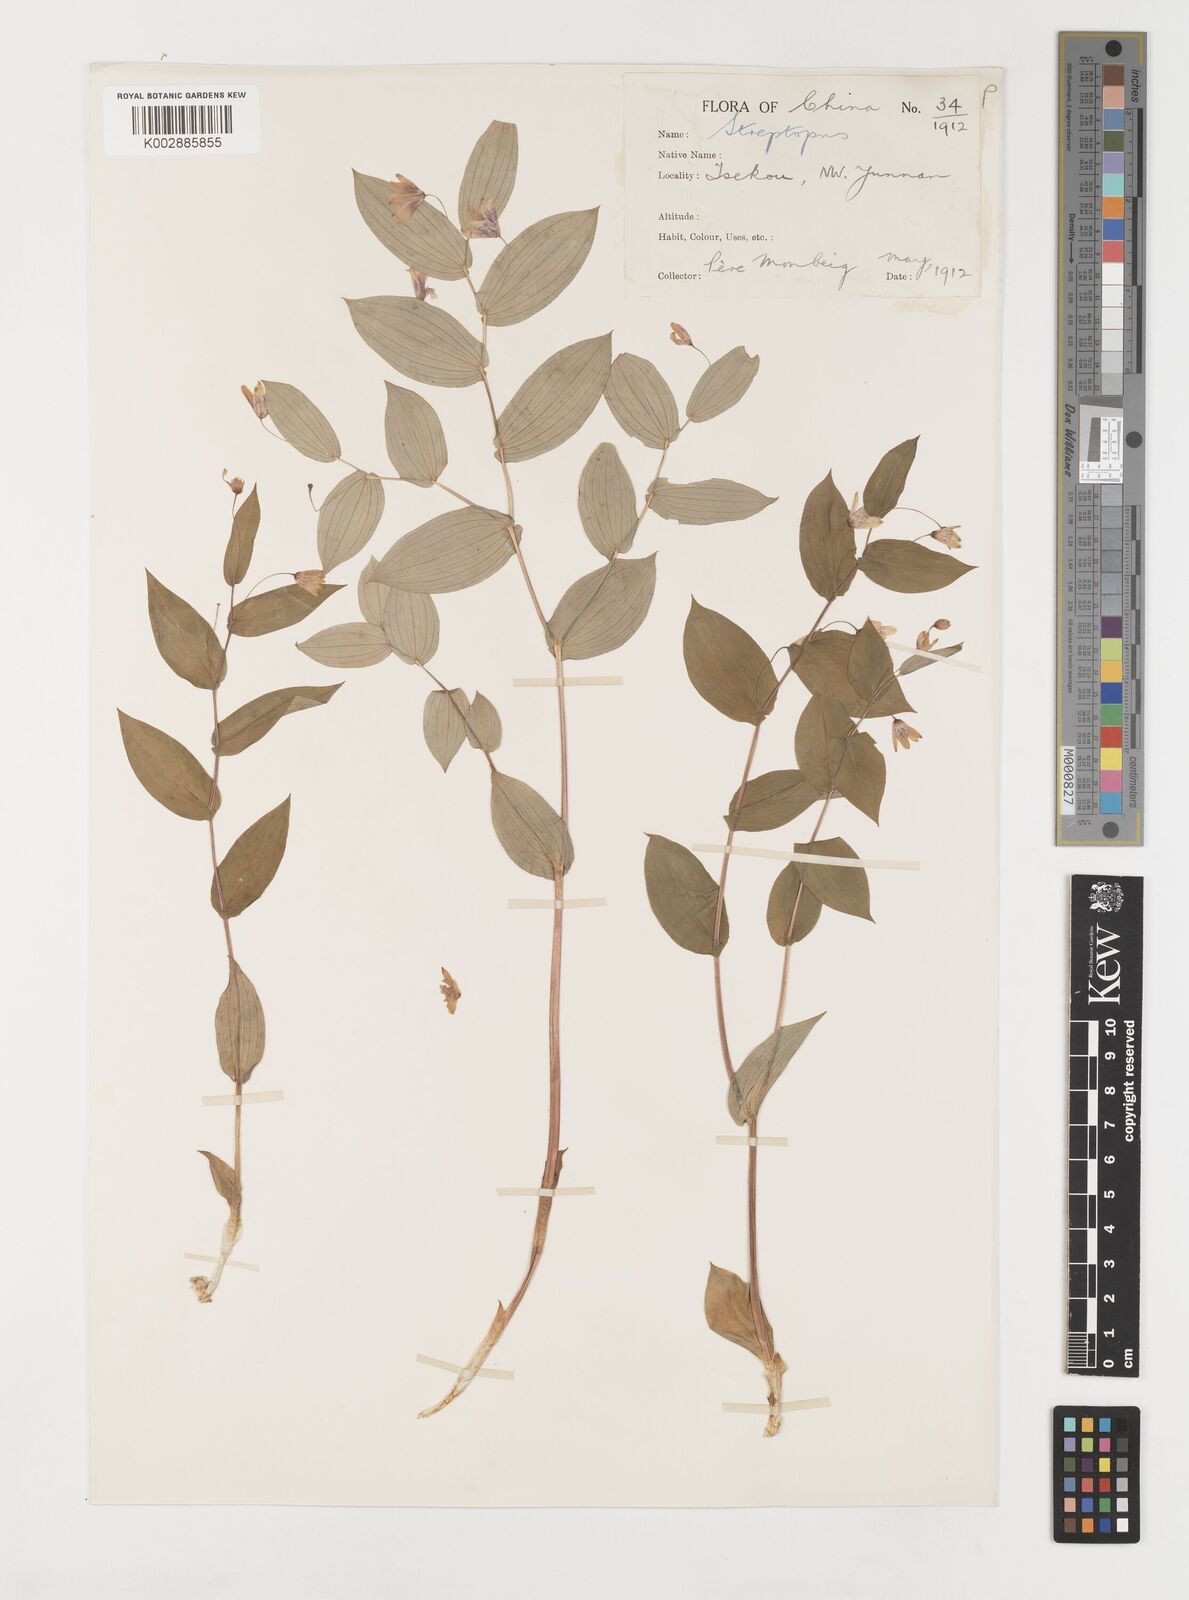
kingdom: Plantae
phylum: Tracheophyta
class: Liliopsida
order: Liliales
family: Liliaceae
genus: Streptopus
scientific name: Streptopus simplex
